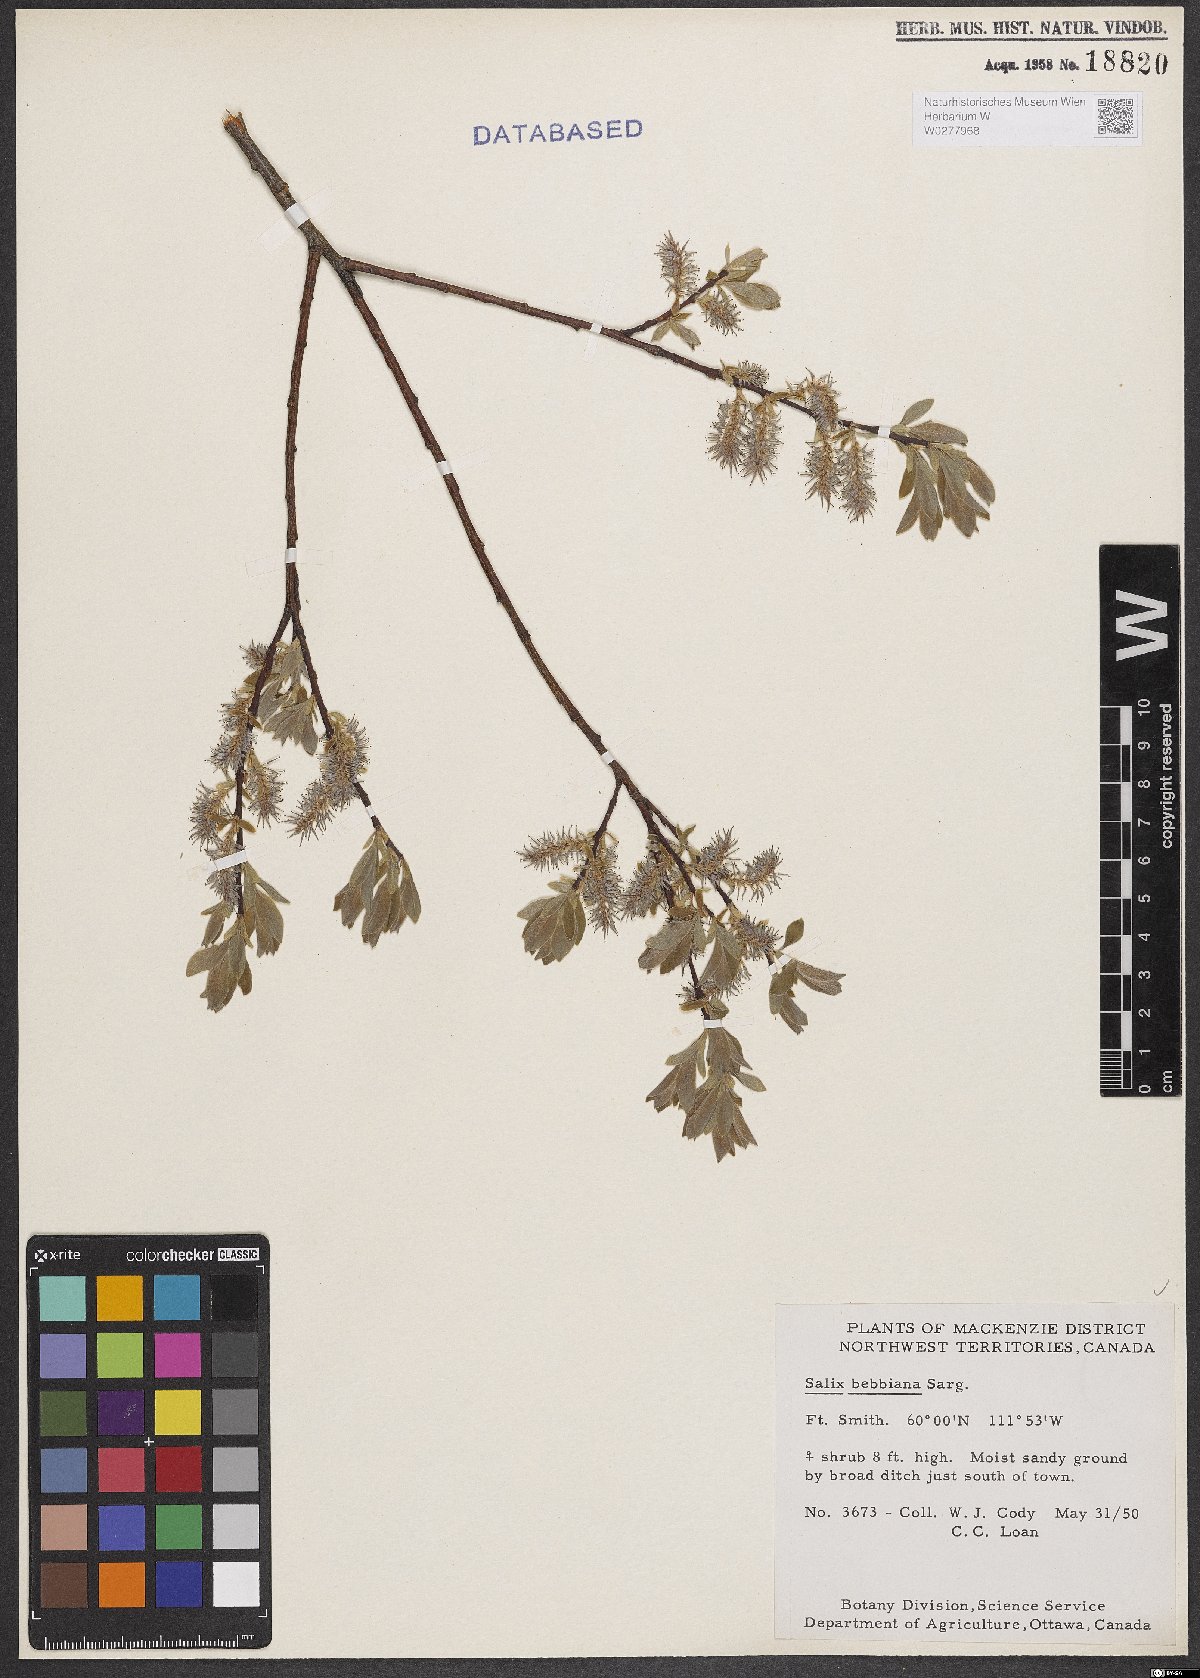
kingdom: Plantae
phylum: Tracheophyta
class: Magnoliopsida
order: Malpighiales
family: Salicaceae
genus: Salix
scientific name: Salix bebbiana
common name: Bebb's willow
